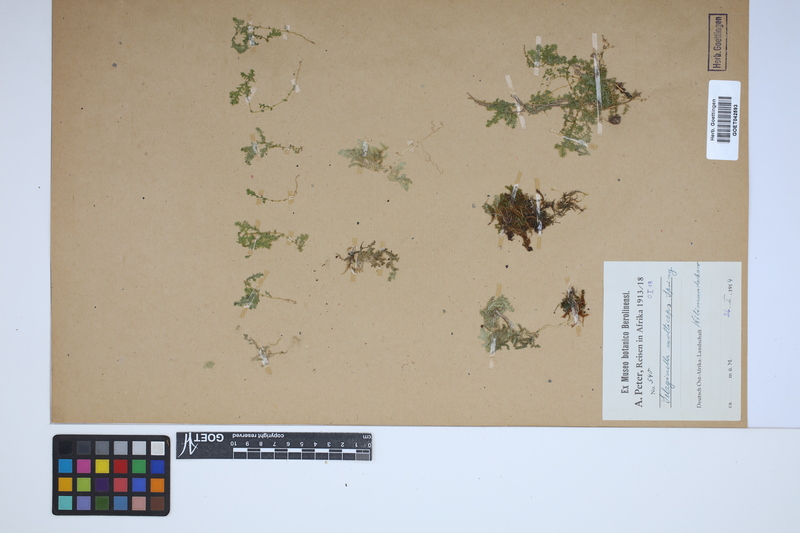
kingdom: Plantae
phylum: Tracheophyta
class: Lycopodiopsida
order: Selaginellales
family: Selaginellaceae
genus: Selaginella
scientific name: Selaginella molliceps
